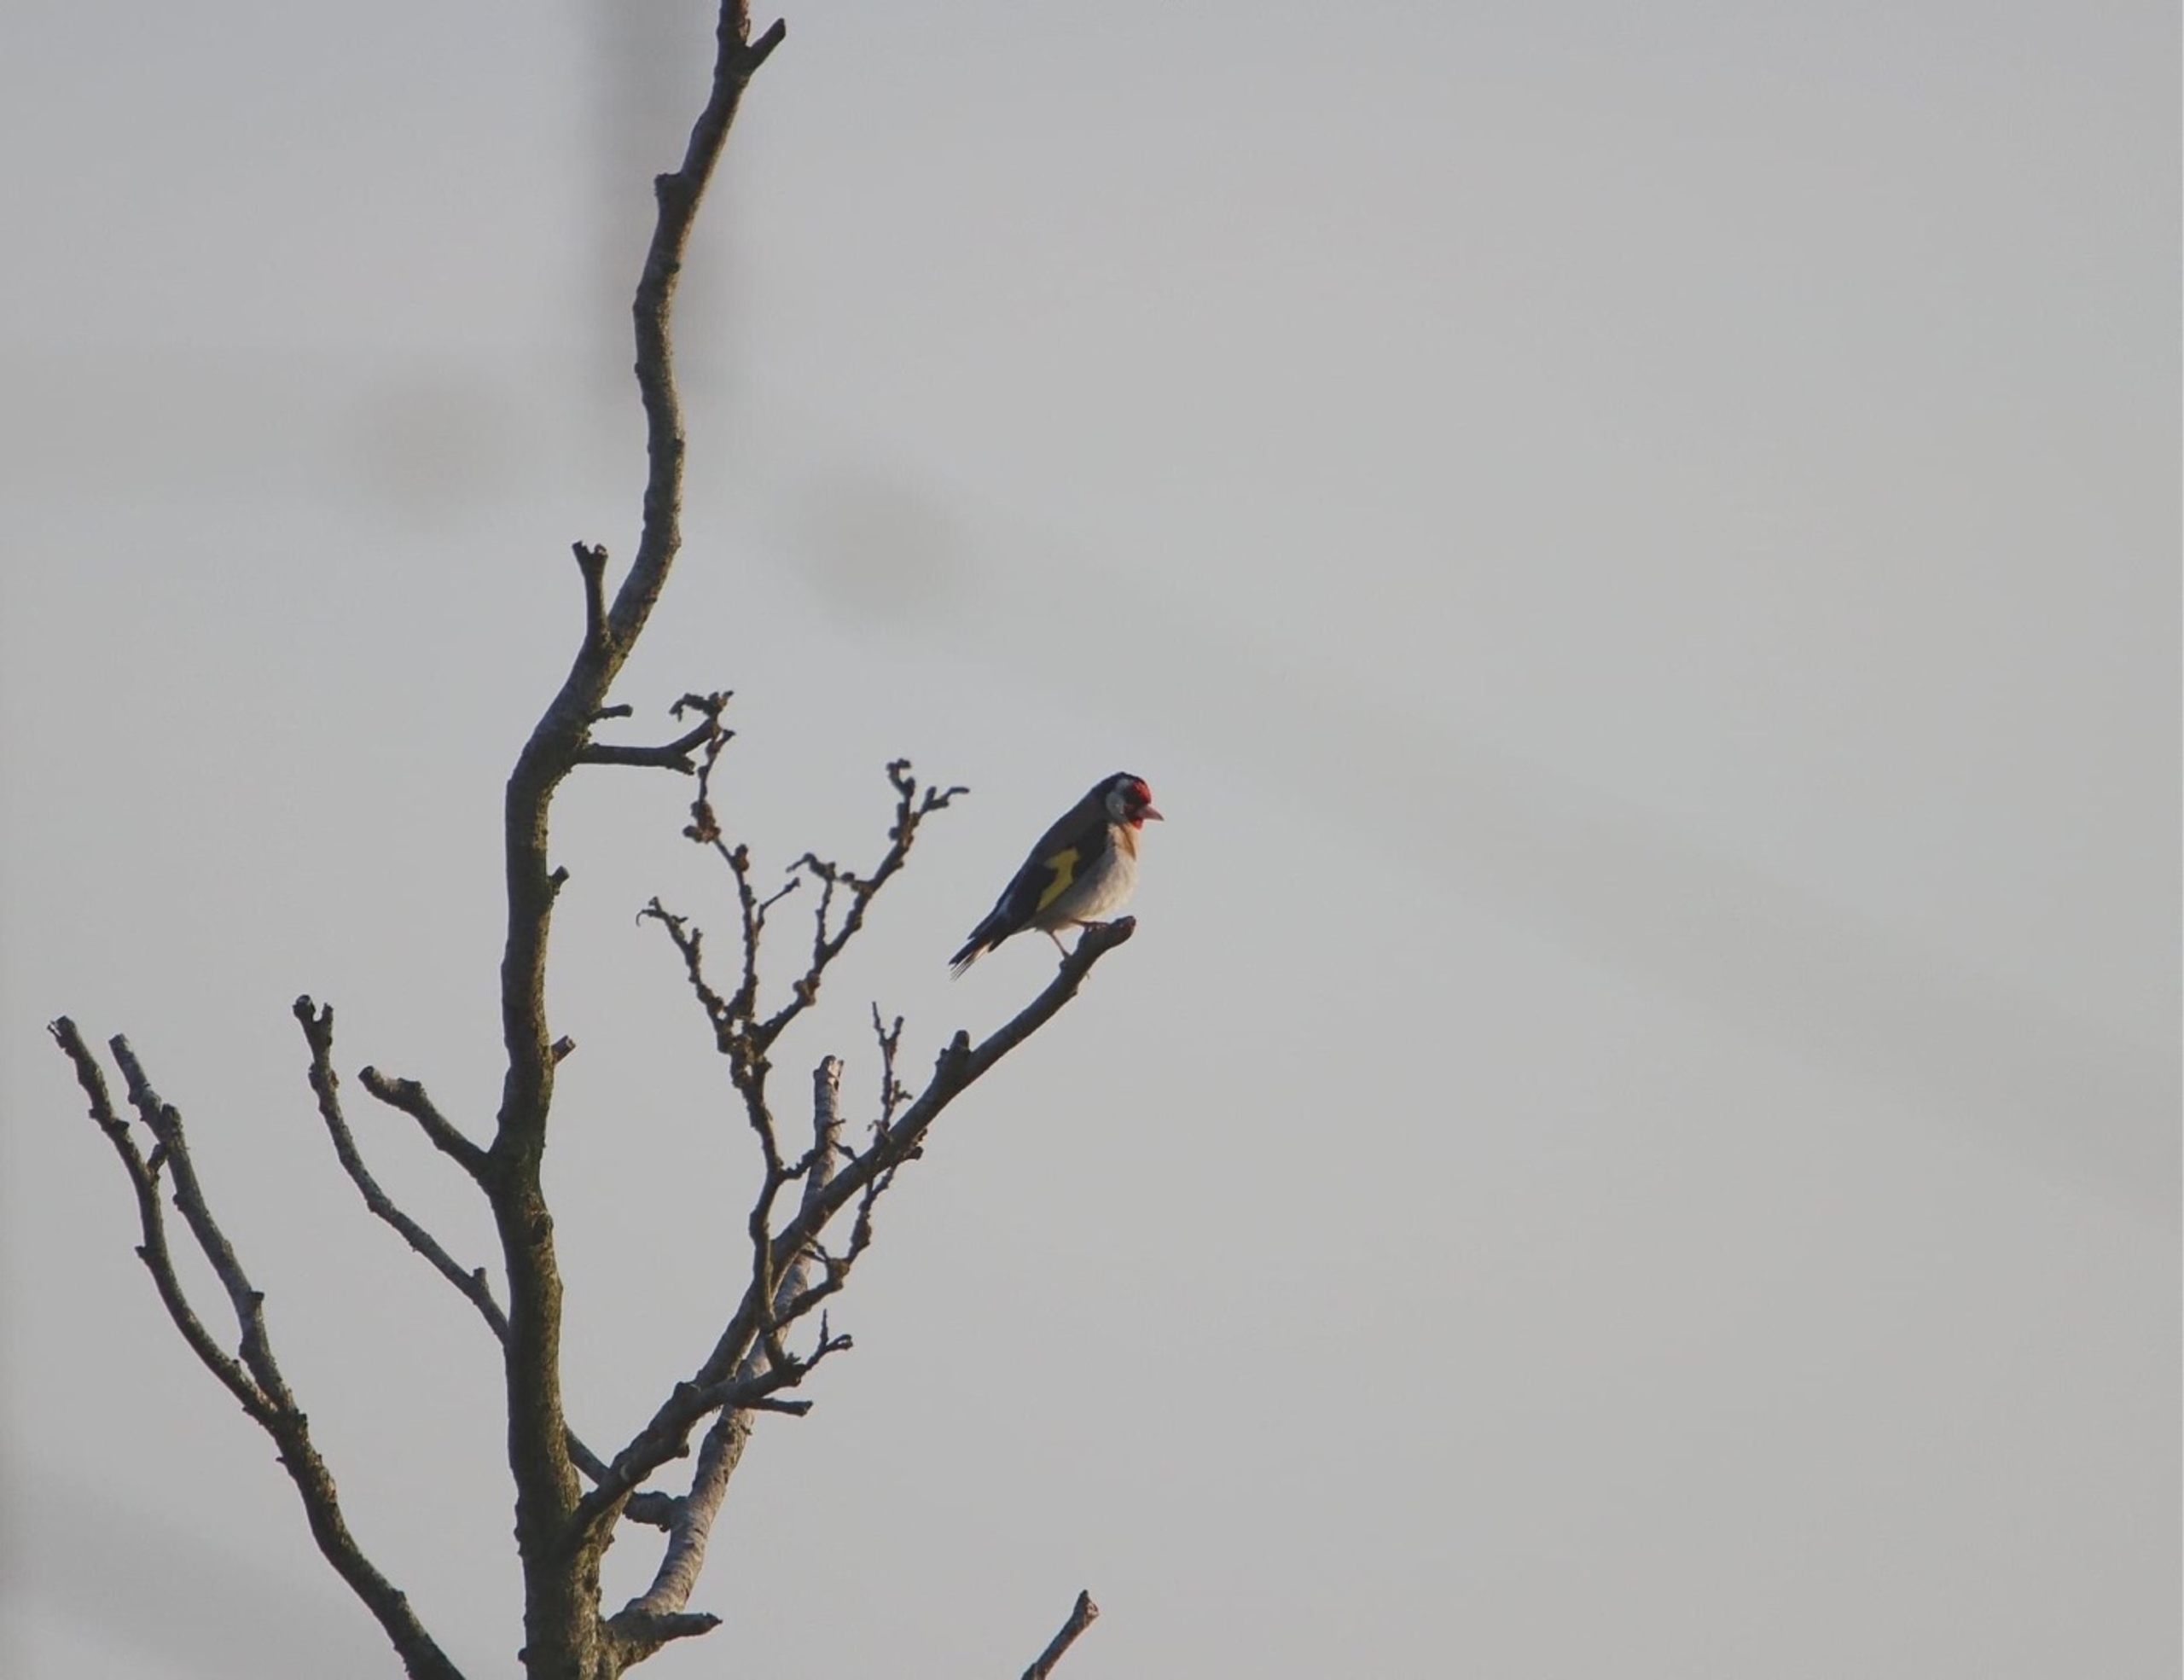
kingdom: Animalia
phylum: Chordata
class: Aves
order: Passeriformes
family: Fringillidae
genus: Carduelis
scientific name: Carduelis carduelis
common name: Stillits
